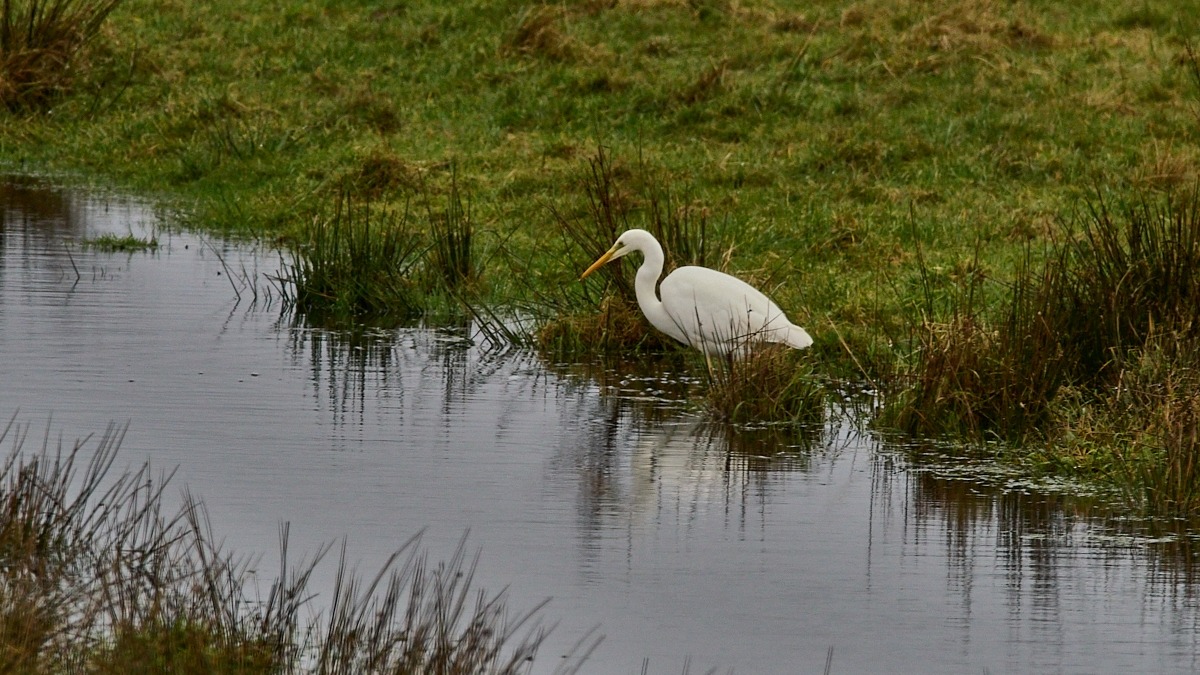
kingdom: Animalia
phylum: Chordata
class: Aves
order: Pelecaniformes
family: Ardeidae
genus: Ardea
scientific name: Ardea alba
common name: Sølvhejre
